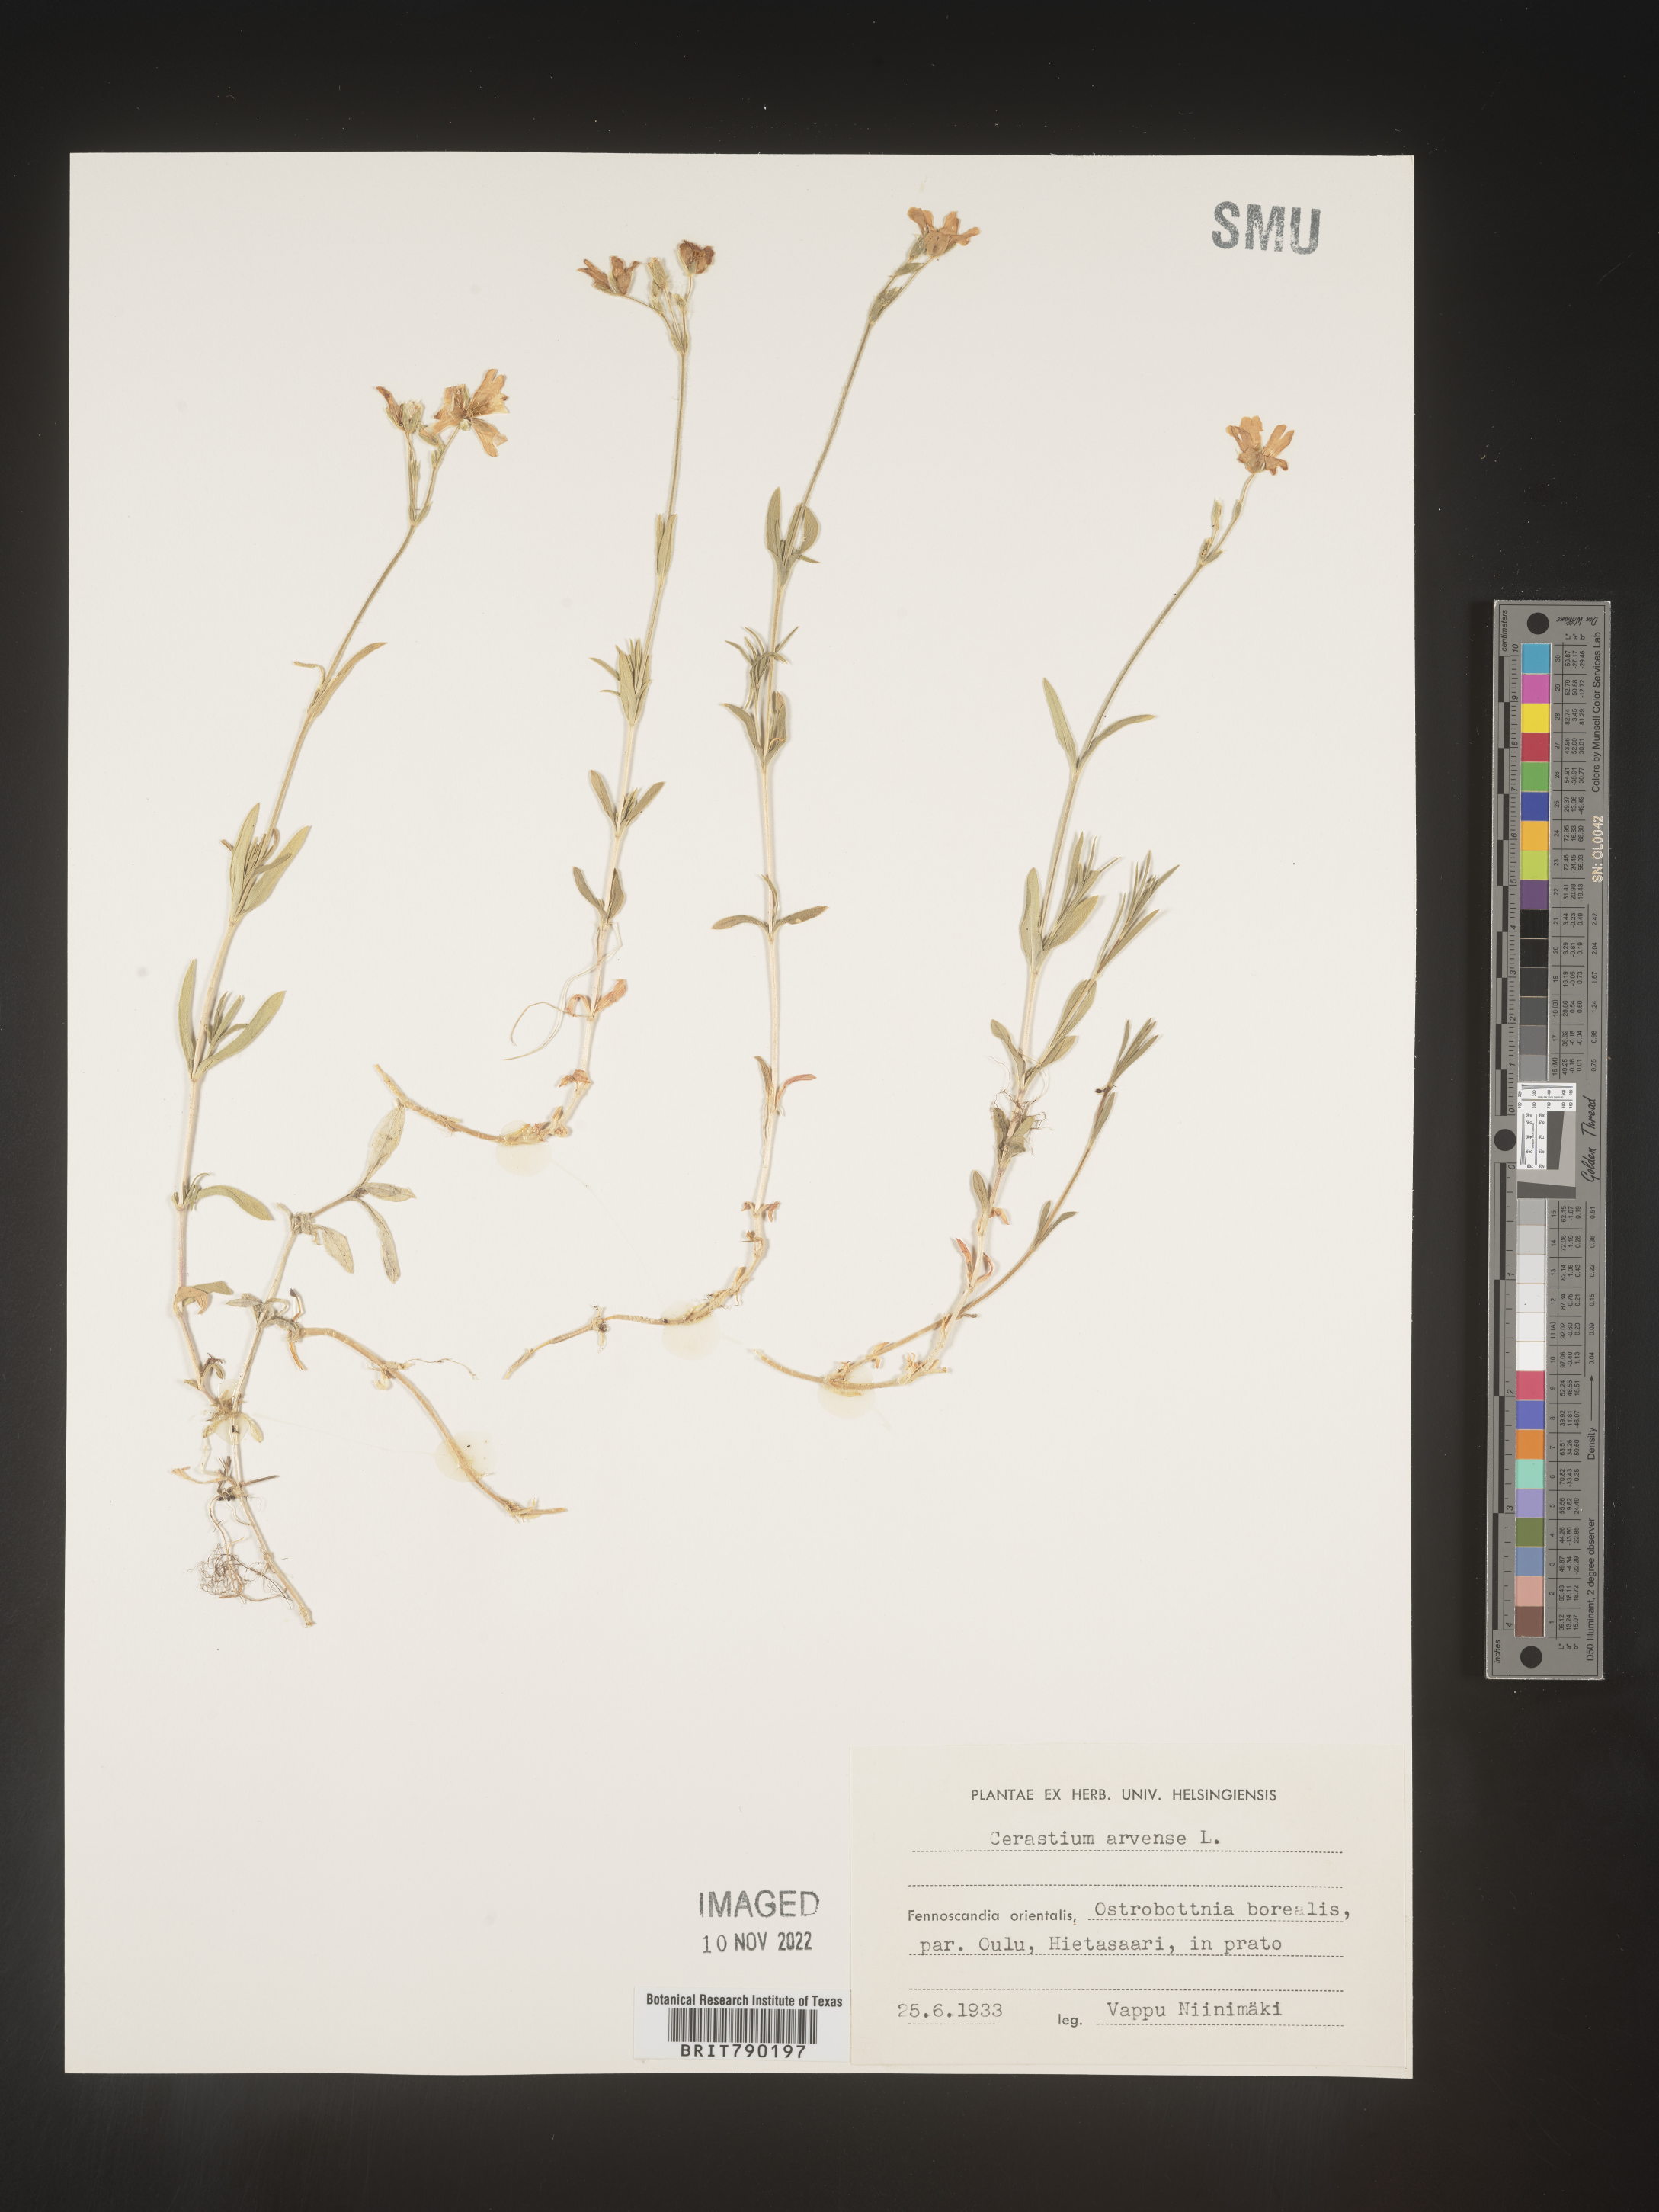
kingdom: Plantae
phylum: Tracheophyta
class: Magnoliopsida
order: Caryophyllales
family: Caryophyllaceae
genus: Cerastium
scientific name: Cerastium
